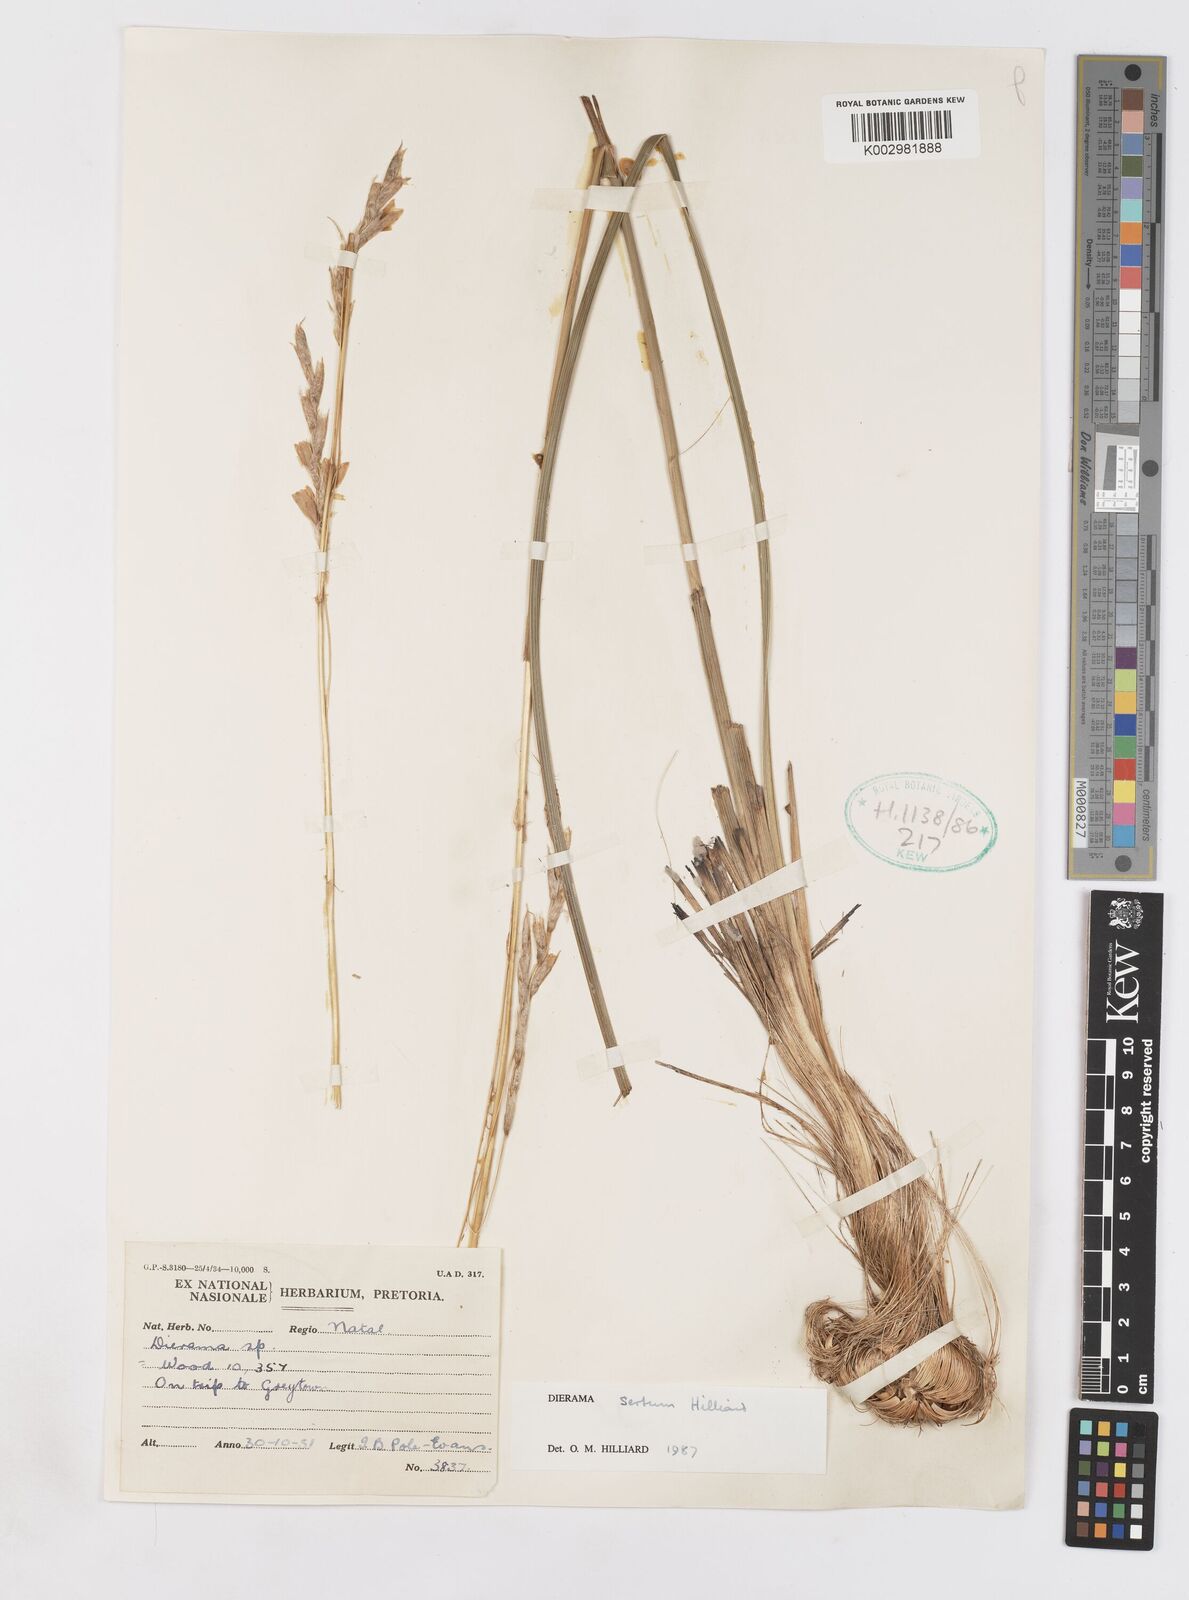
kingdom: Plantae
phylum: Tracheophyta
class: Liliopsida
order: Asparagales
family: Iridaceae
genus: Dierama
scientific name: Dierama sertum
